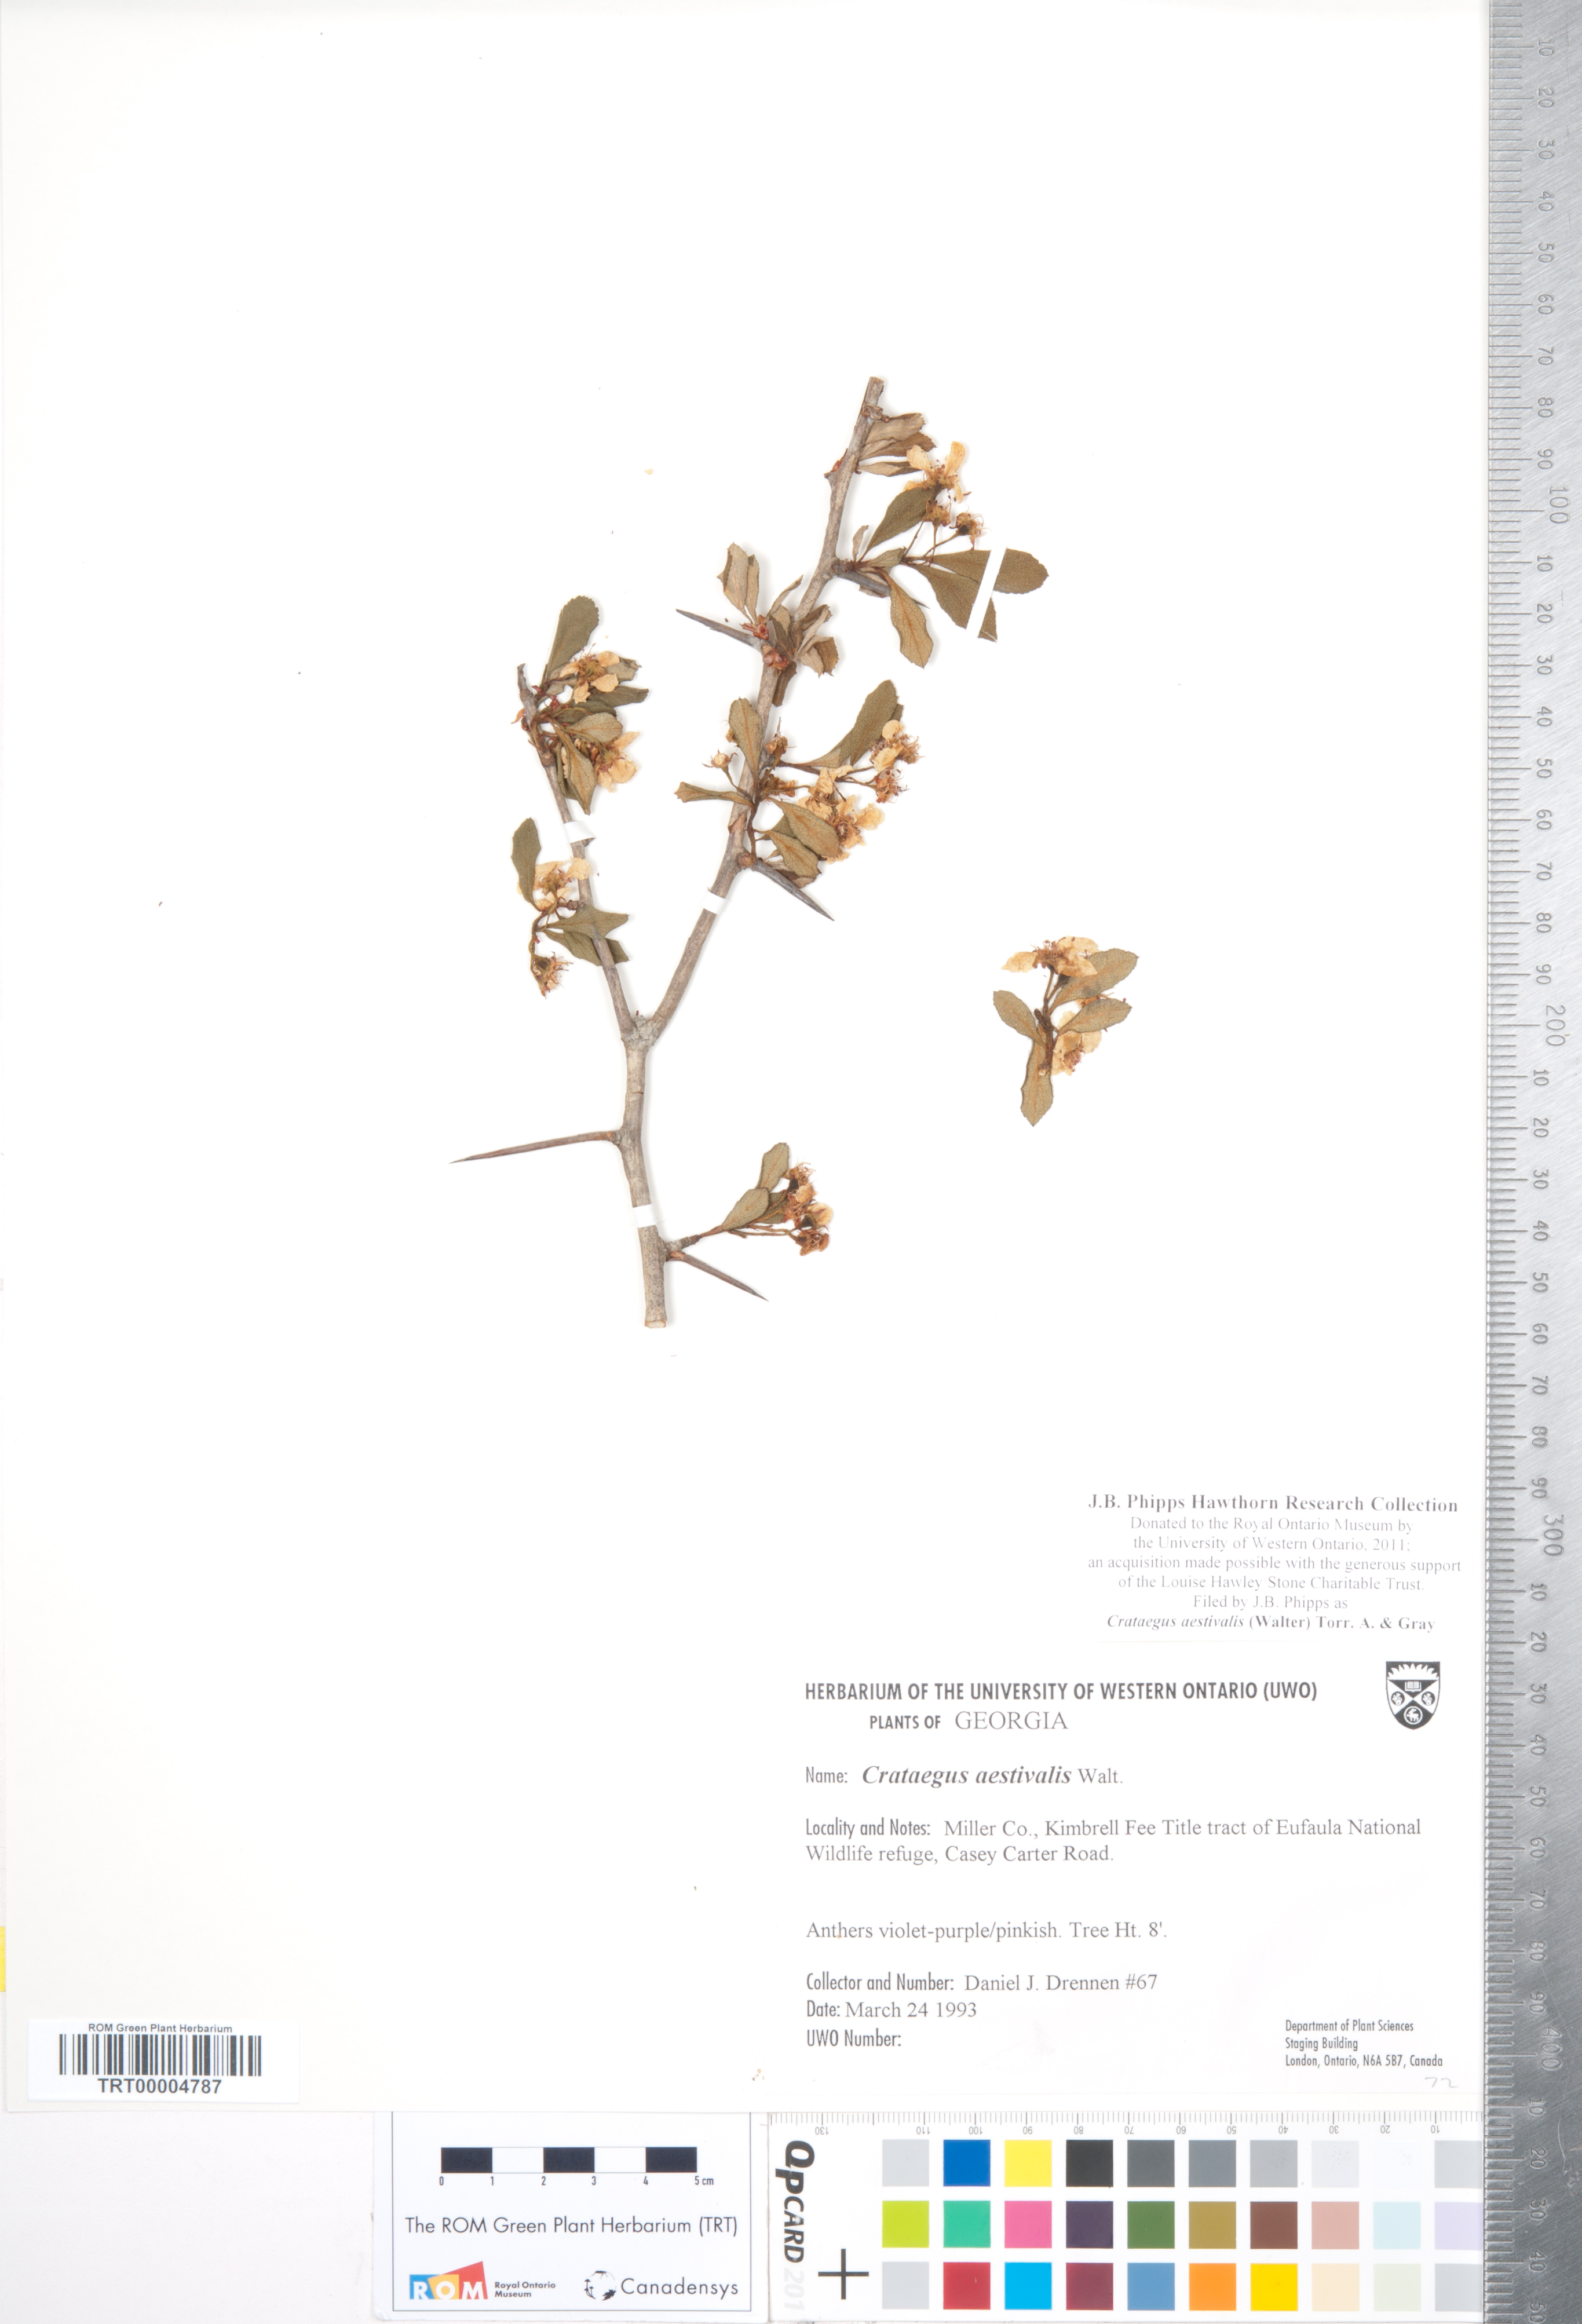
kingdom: Plantae
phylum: Tracheophyta
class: Magnoliopsida
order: Rosales
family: Rosaceae
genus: Crataegus
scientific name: Crataegus aestivalis
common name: Mayhaw
